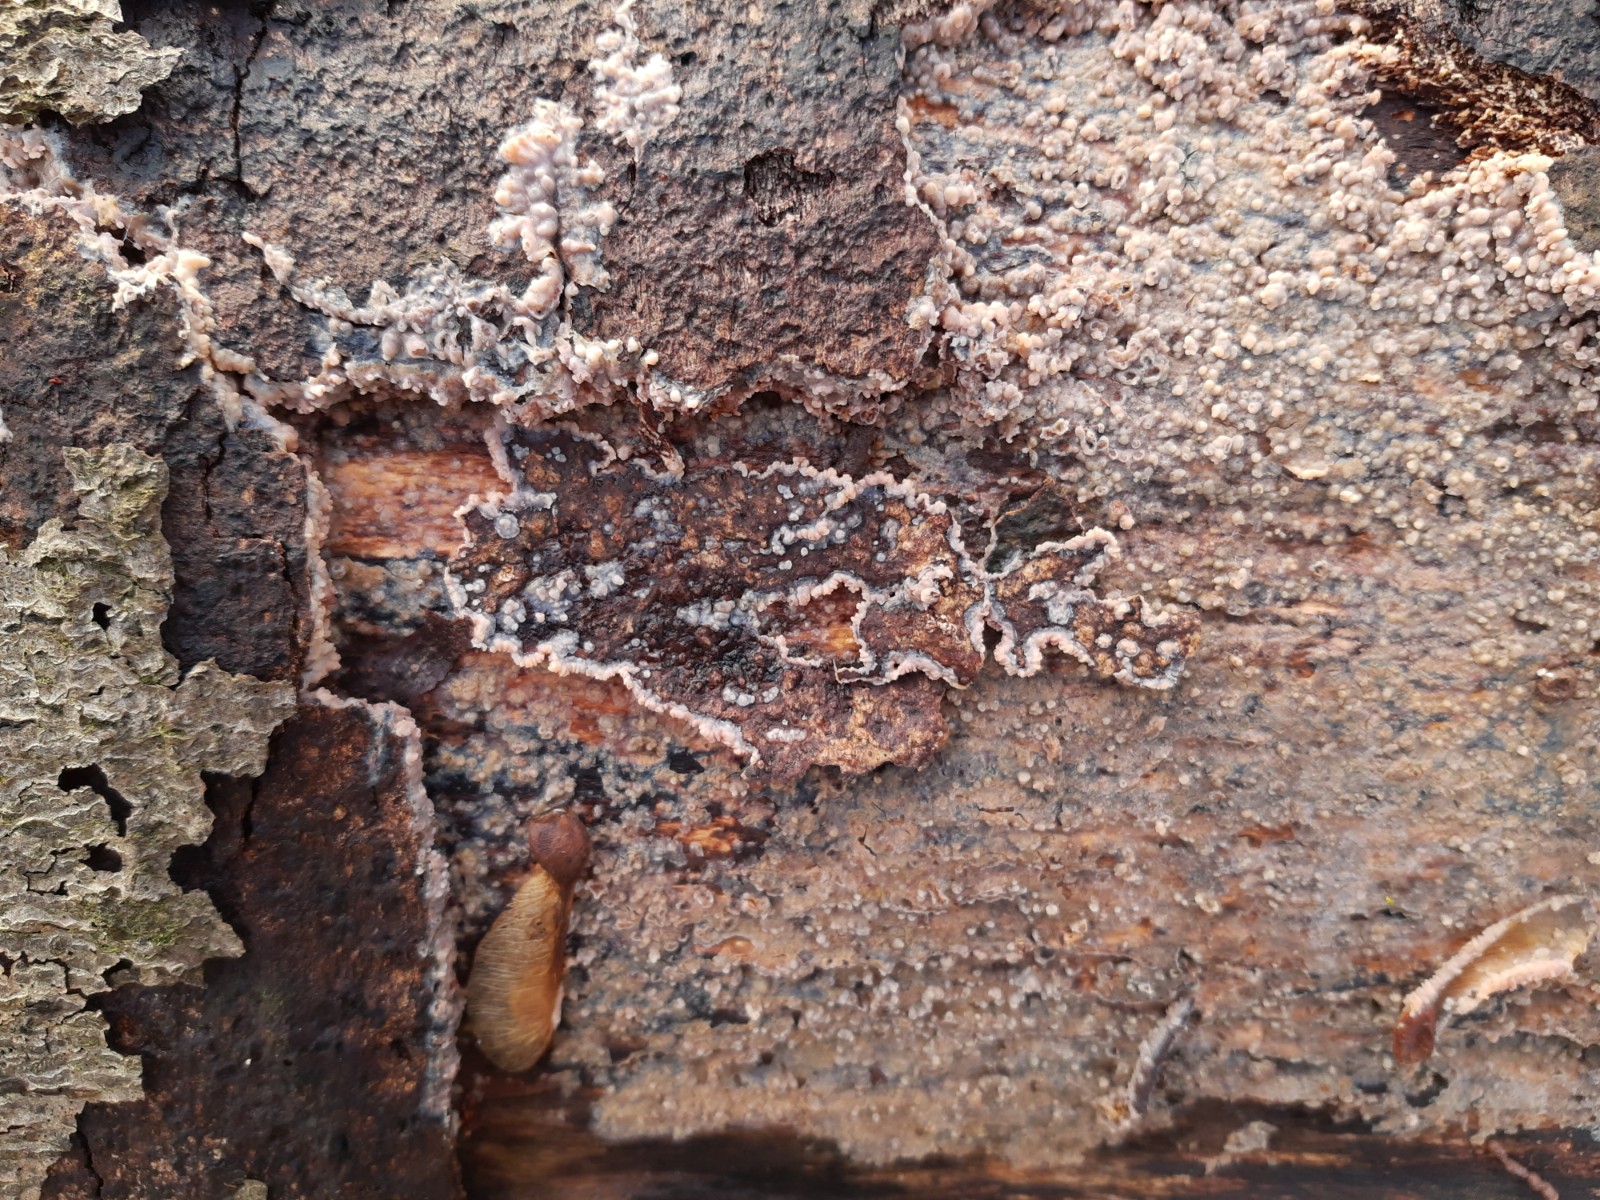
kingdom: Fungi
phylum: Basidiomycota
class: Agaricomycetes
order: Polyporales
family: Meruliaceae
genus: Phlebia
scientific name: Phlebia
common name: åresvamp
